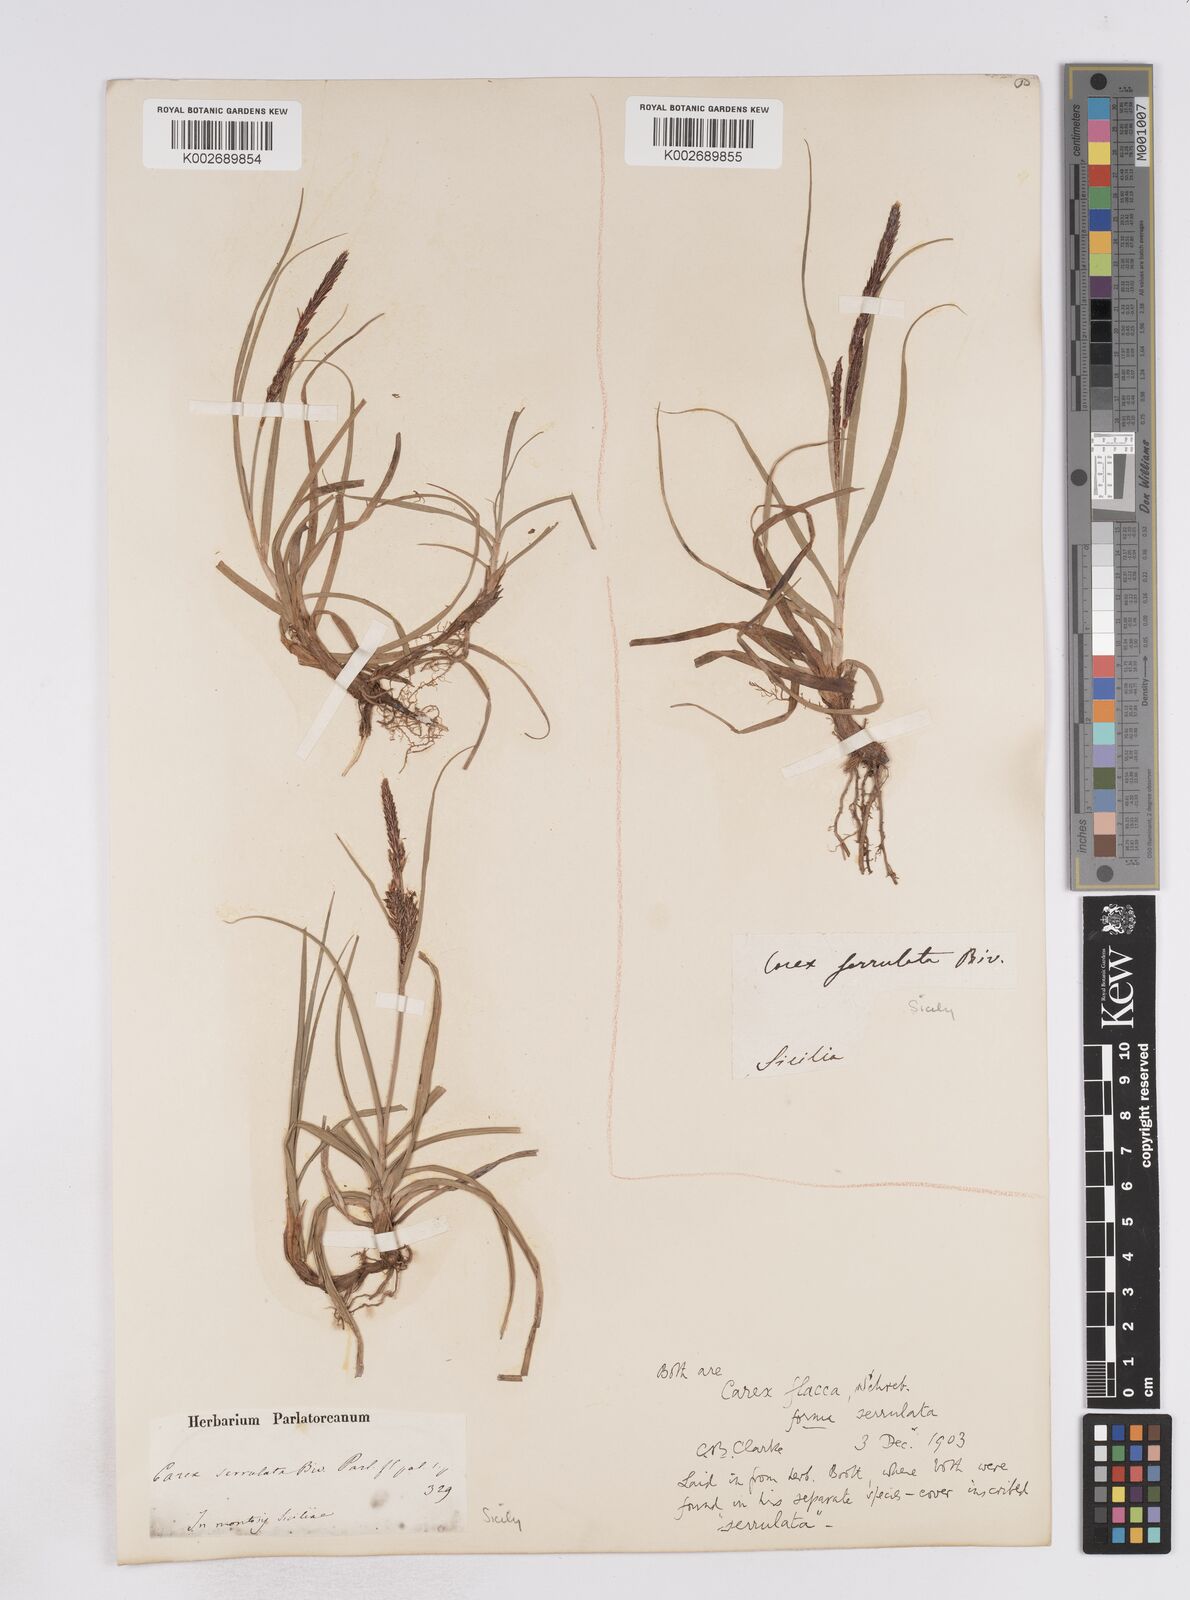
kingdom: Plantae
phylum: Tracheophyta
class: Liliopsida
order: Poales
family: Cyperaceae
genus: Carex
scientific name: Carex flacca
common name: Glaucous sedge
